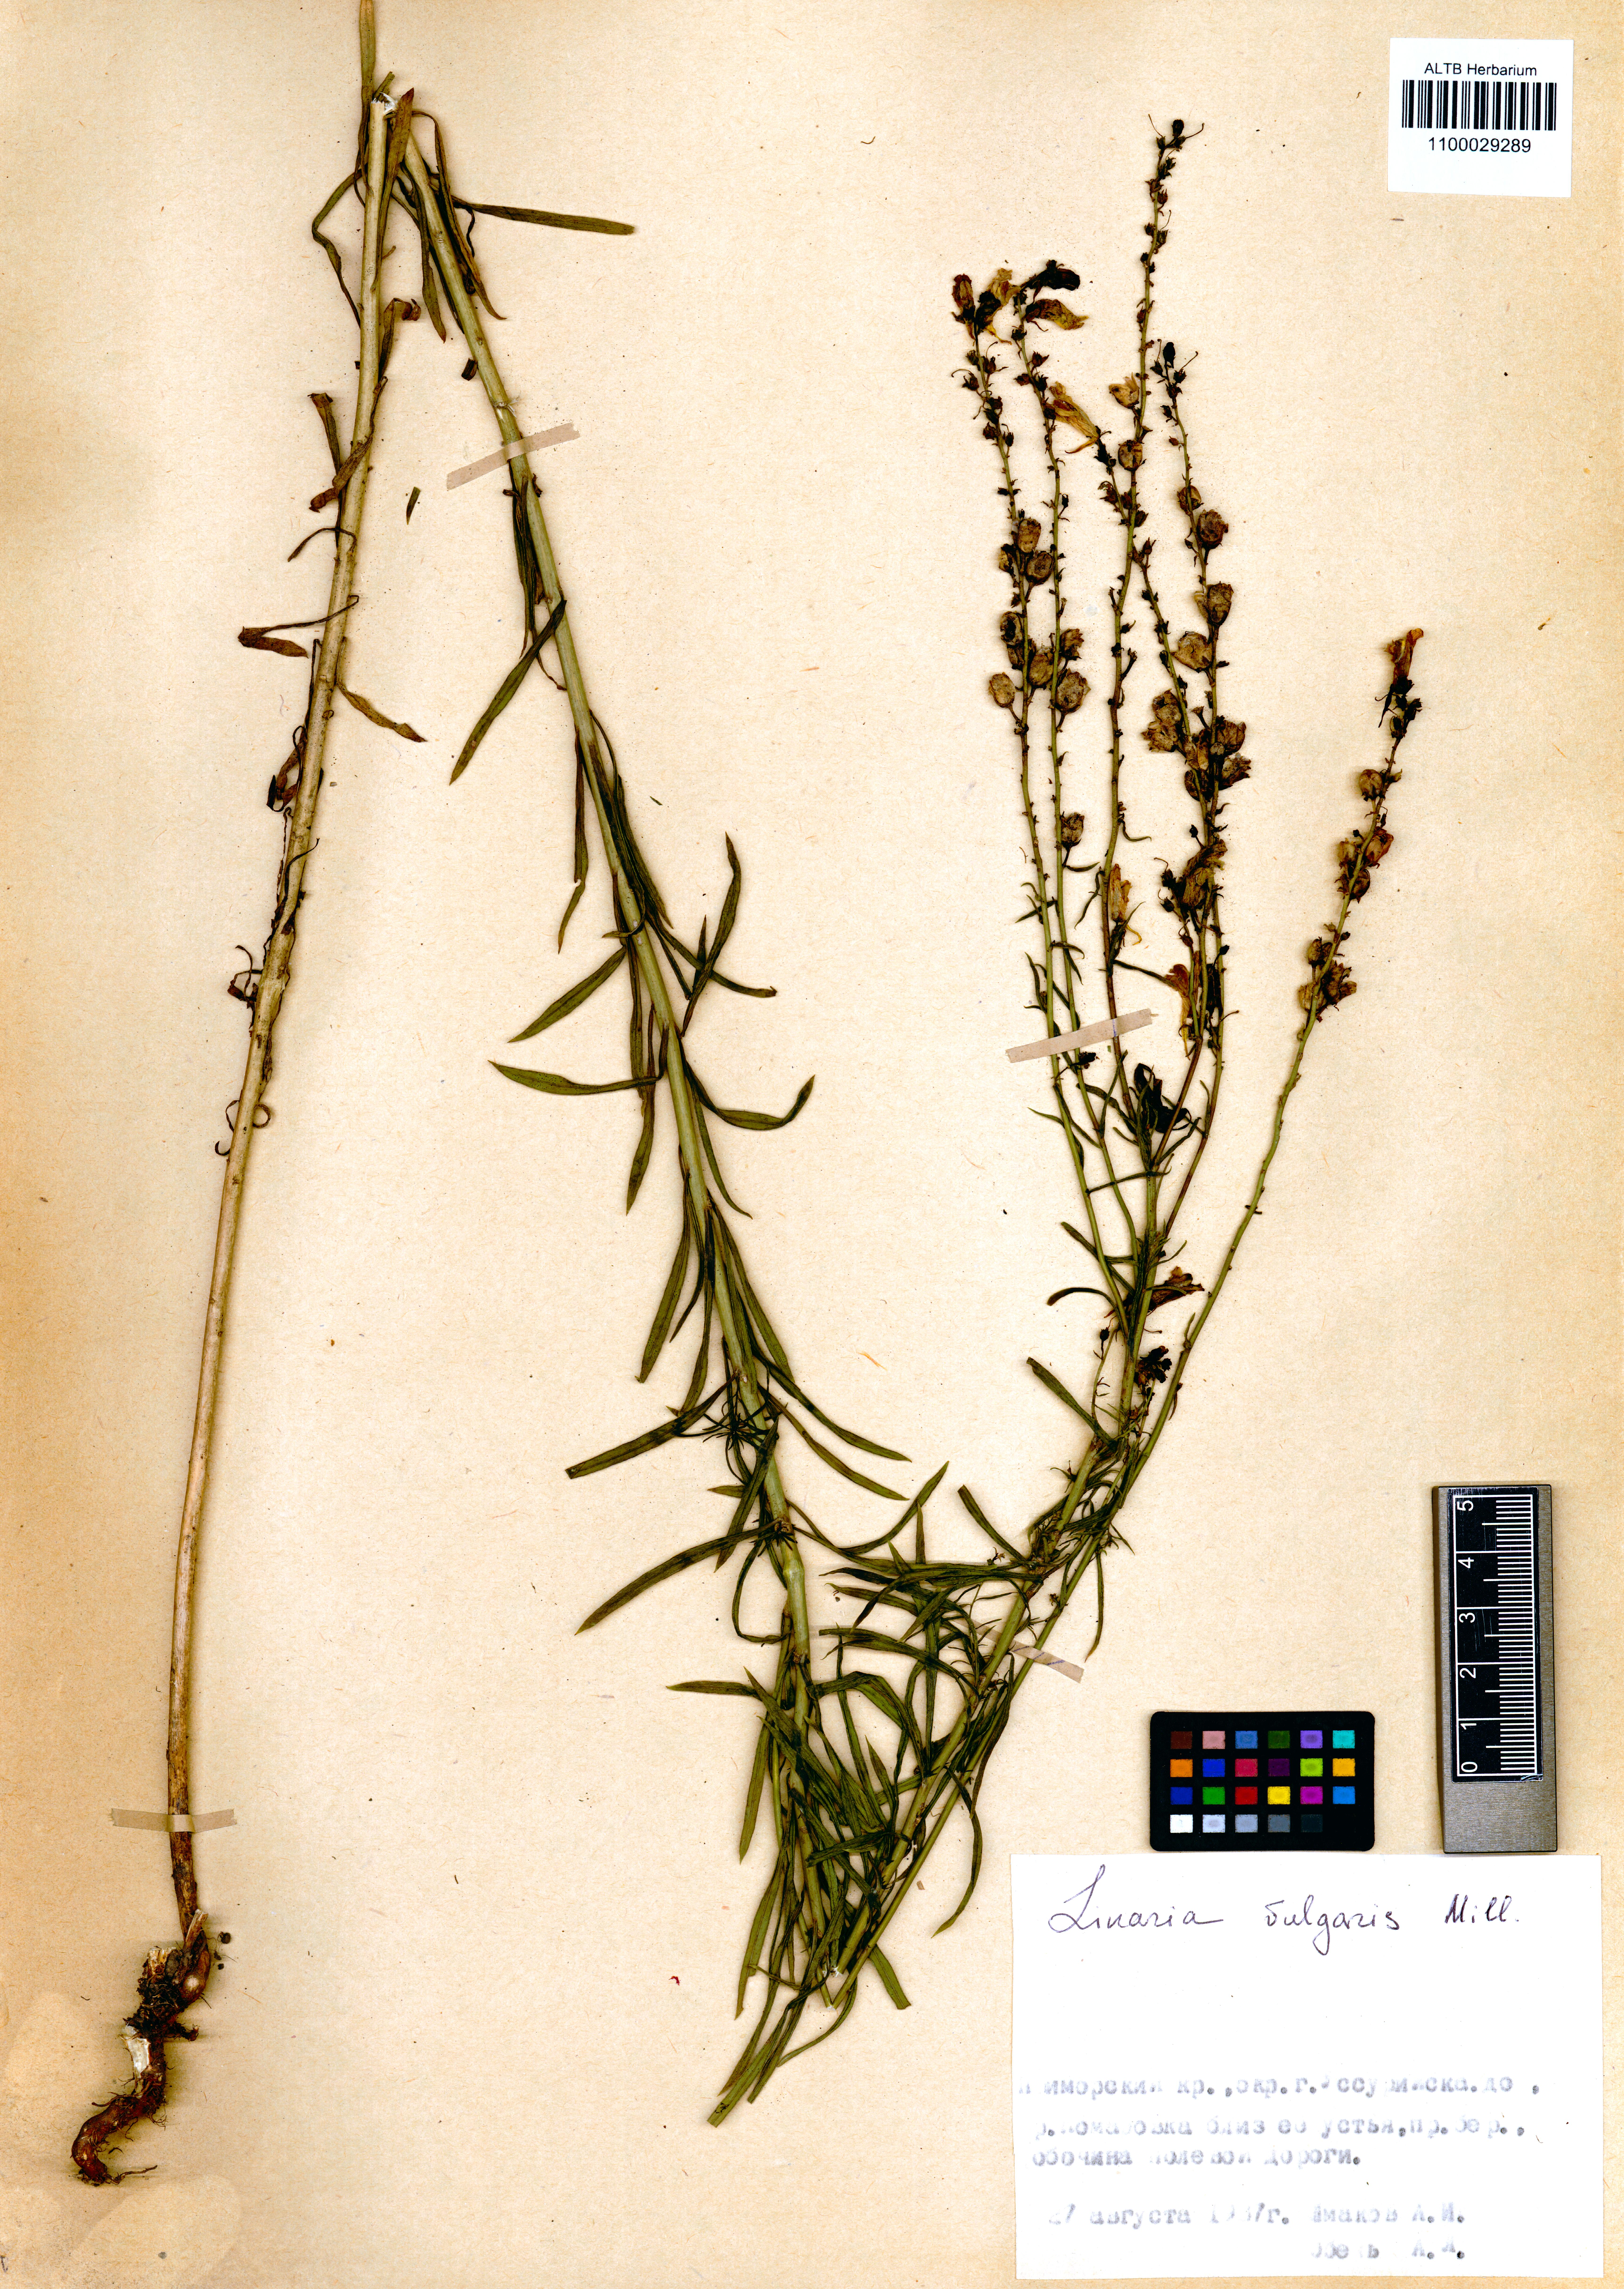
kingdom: Plantae
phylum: Tracheophyta
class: Magnoliopsida
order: Lamiales
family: Plantaginaceae
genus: Linaria
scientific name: Linaria vulgaris
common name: Butter and eggs
